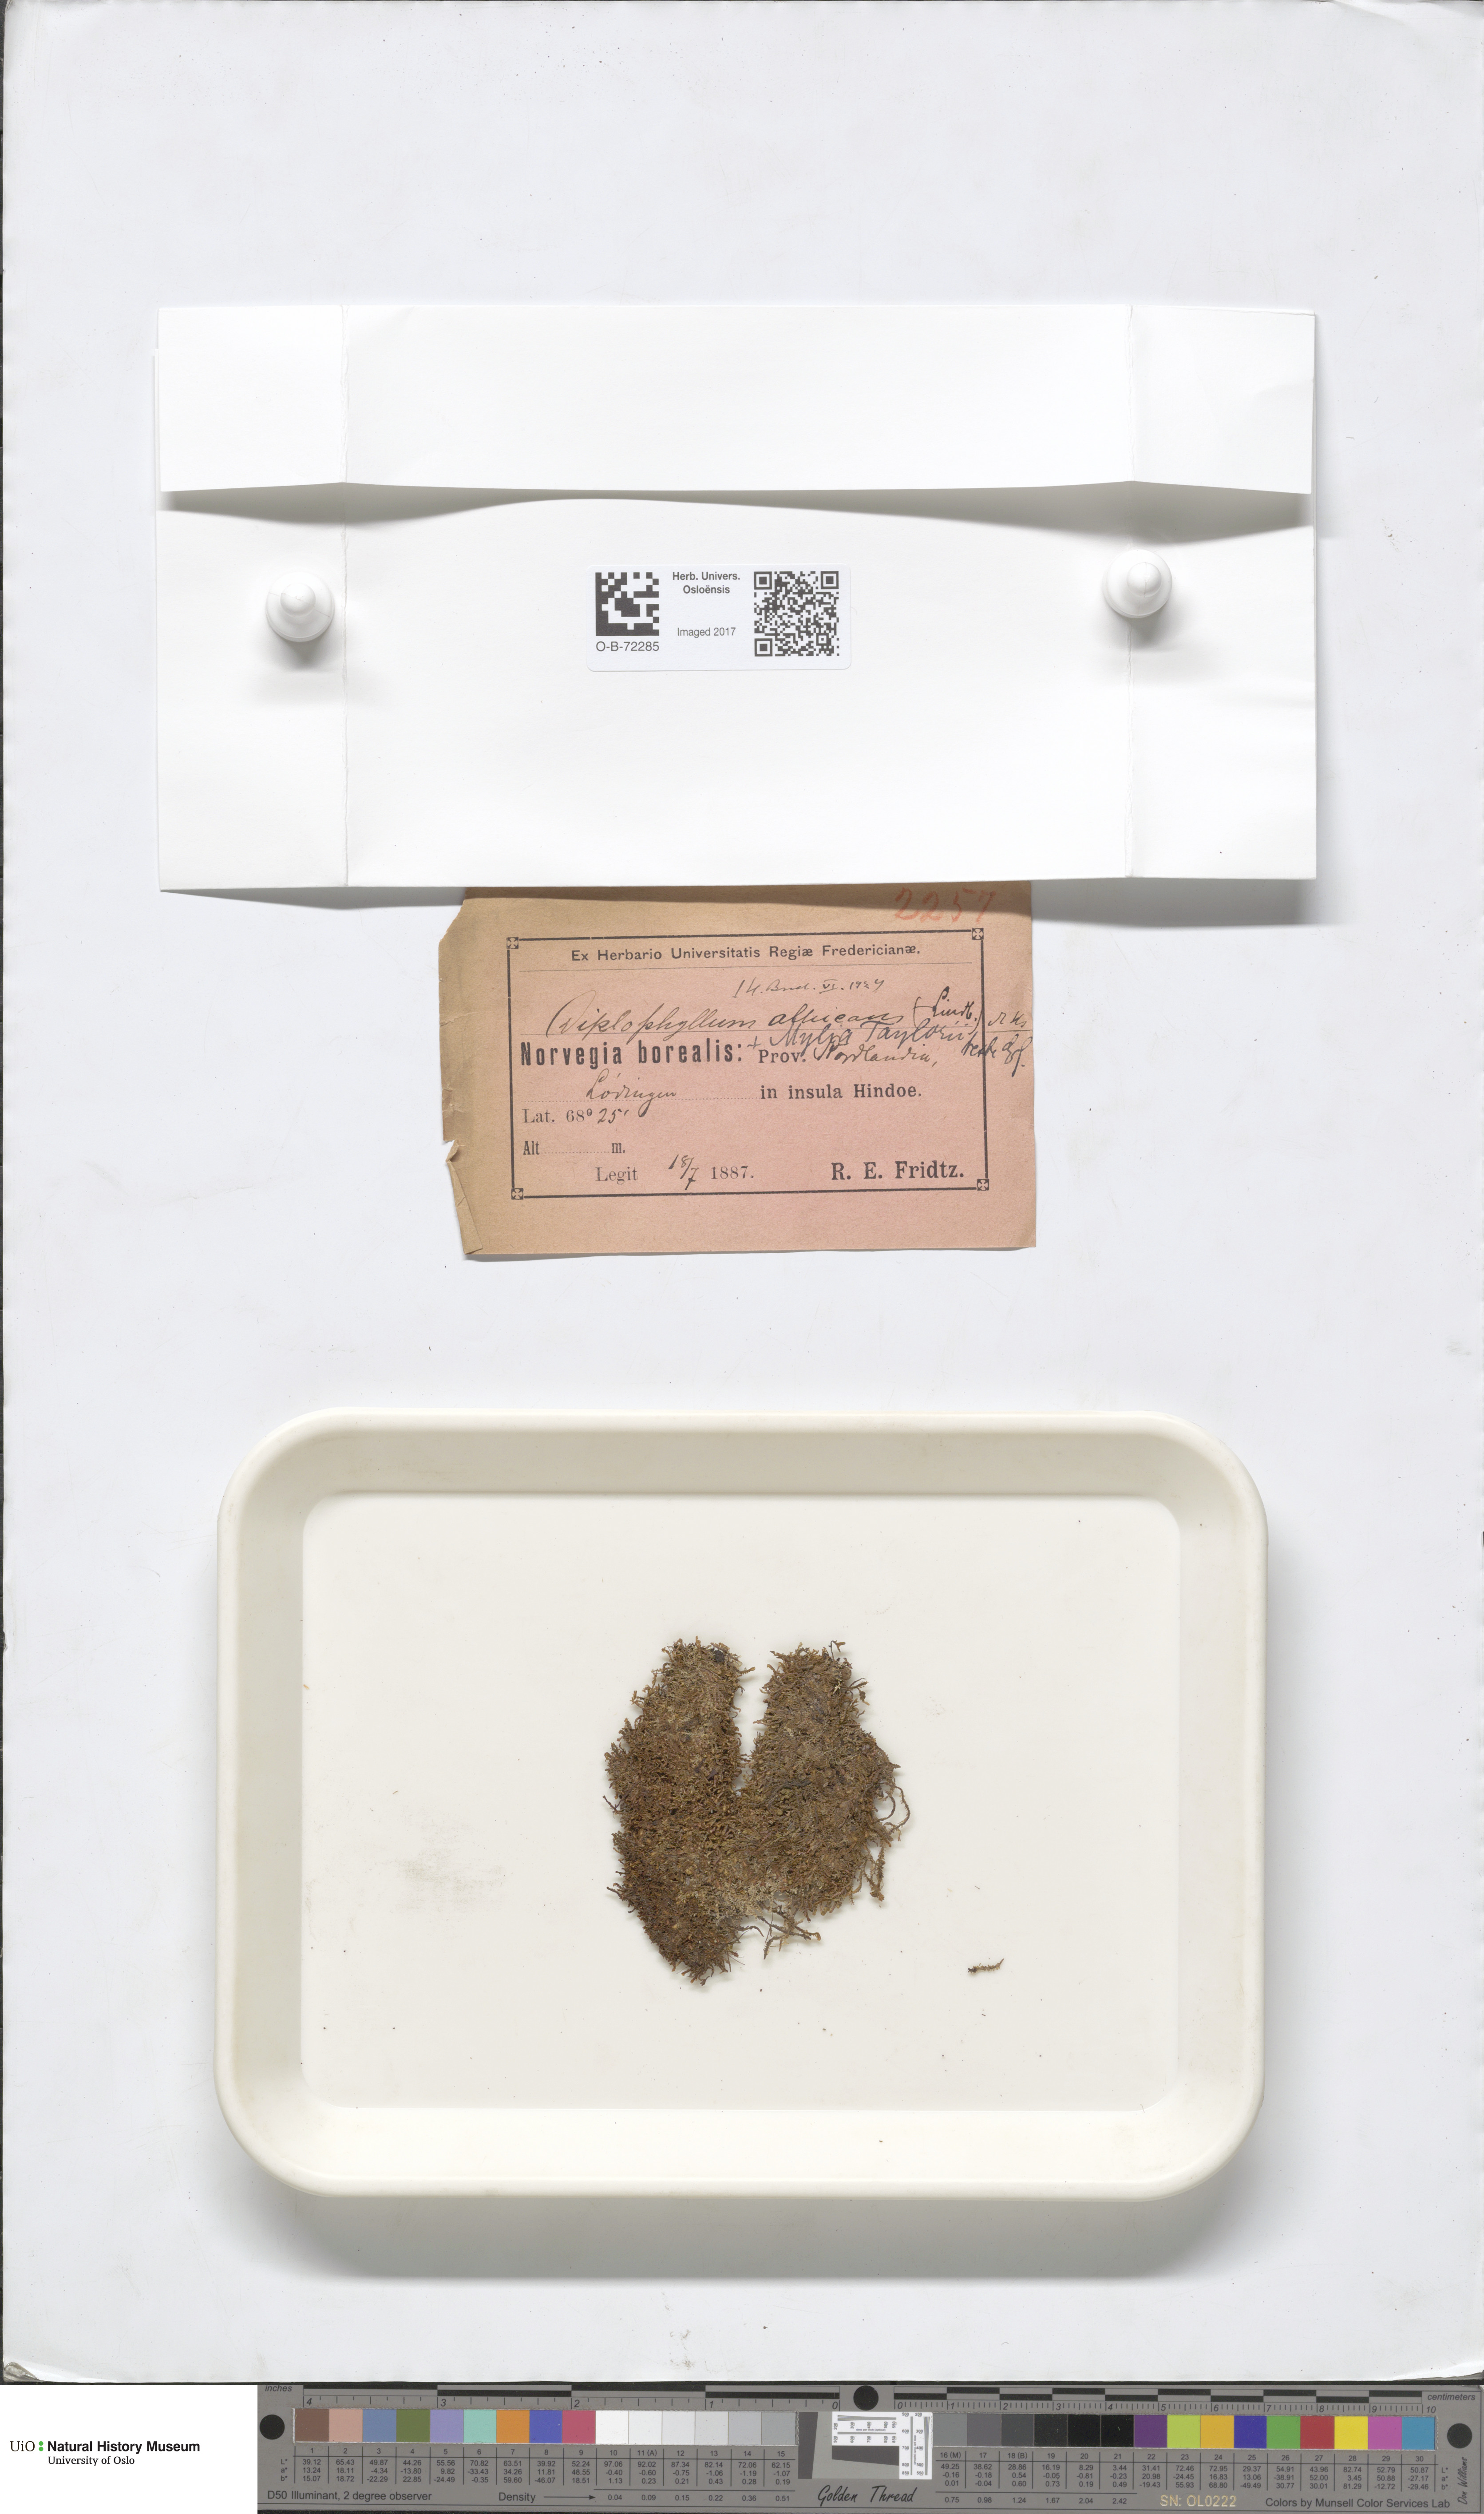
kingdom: Plantae
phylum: Marchantiophyta
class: Jungermanniopsida
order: Jungermanniales
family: Scapaniaceae
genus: Diplophyllum
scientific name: Diplophyllum albicans
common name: White earwort
